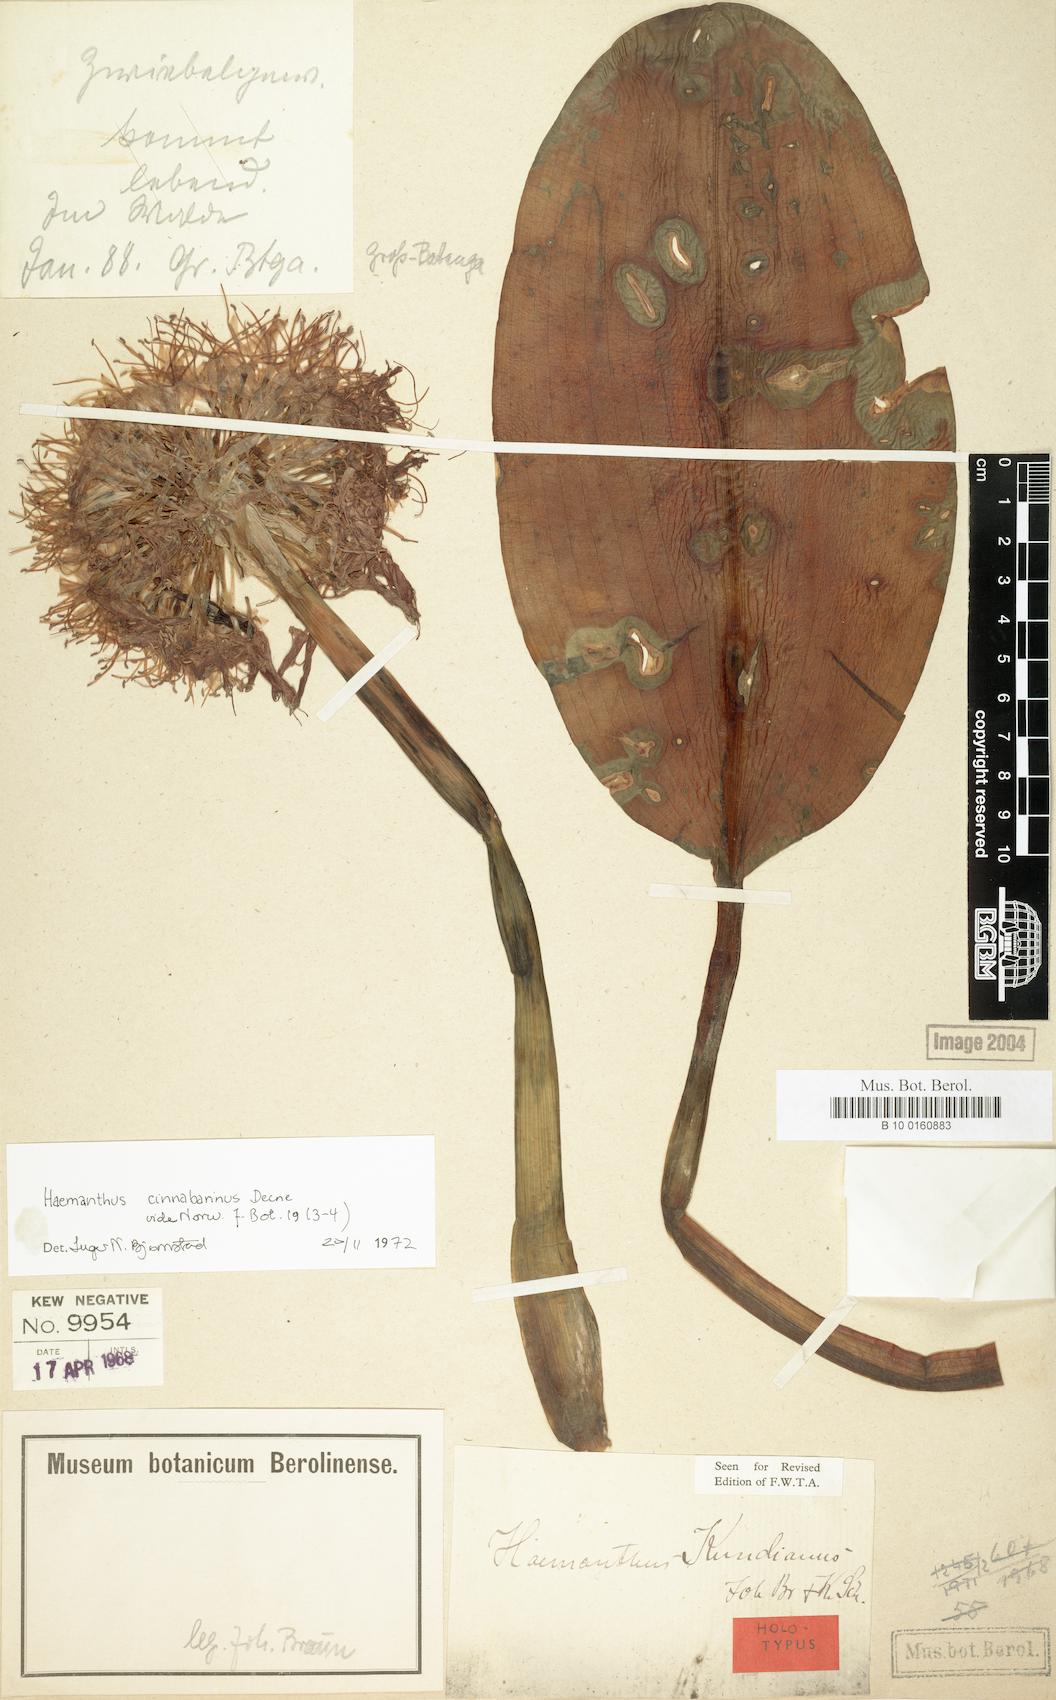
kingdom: Plantae
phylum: Tracheophyta
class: Liliopsida
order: Asparagales
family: Amaryllidaceae
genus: Scadoxus
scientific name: Scadoxus cinnabarinus
